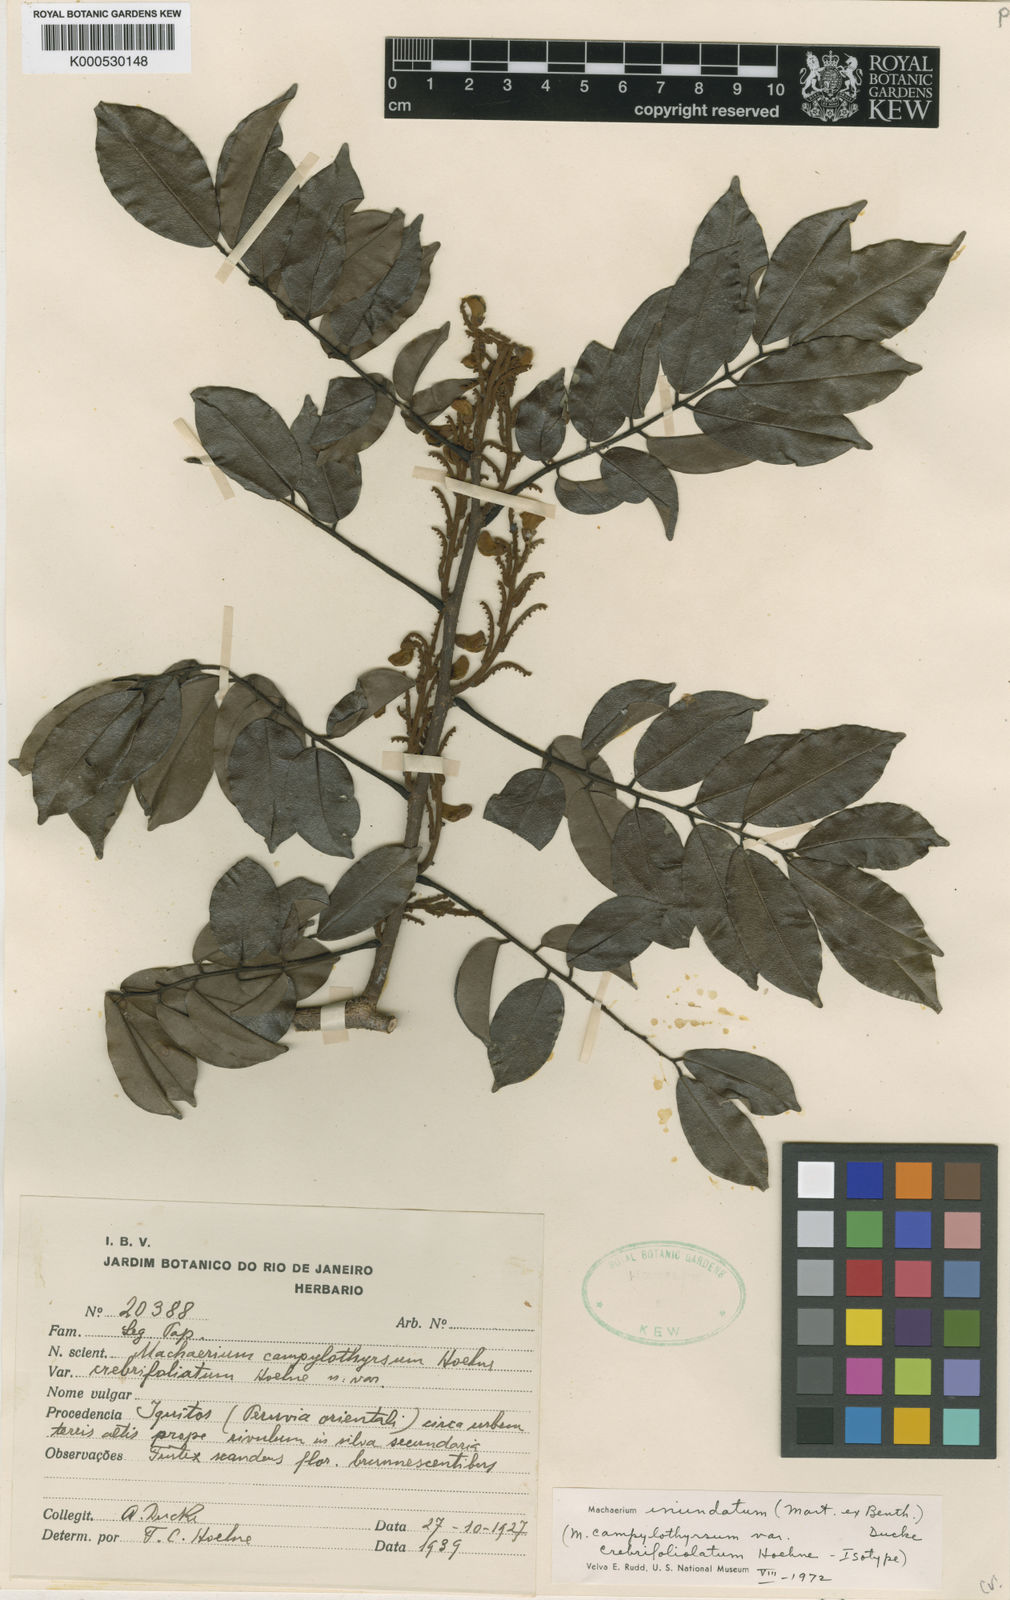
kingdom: Plantae
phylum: Tracheophyta
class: Magnoliopsida
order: Fabales
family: Fabaceae
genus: Machaerium
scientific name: Machaerium inundatum
